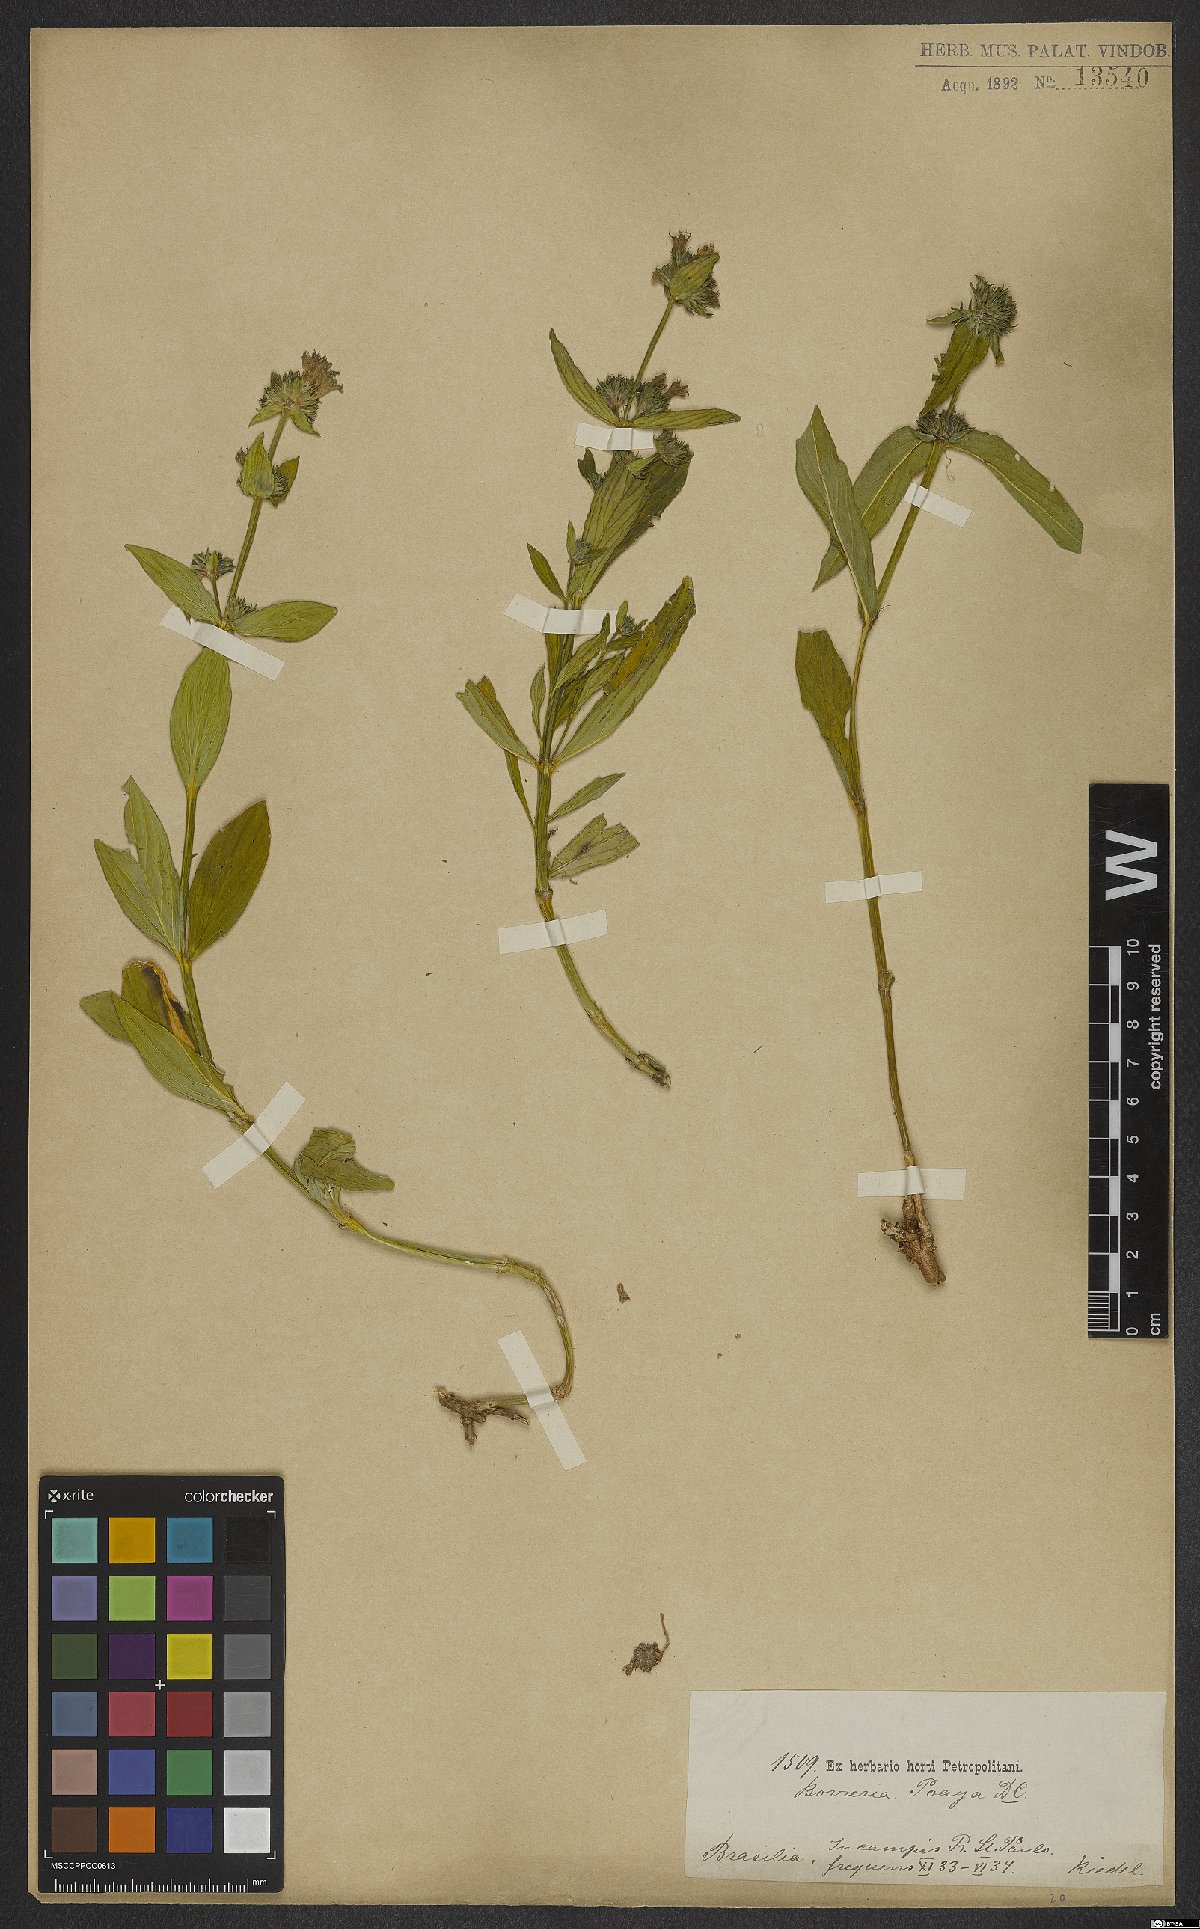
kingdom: Plantae
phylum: Tracheophyta
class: Magnoliopsida
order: Gentianales
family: Rubiaceae
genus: Spermacoce
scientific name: Spermacoce poaya
